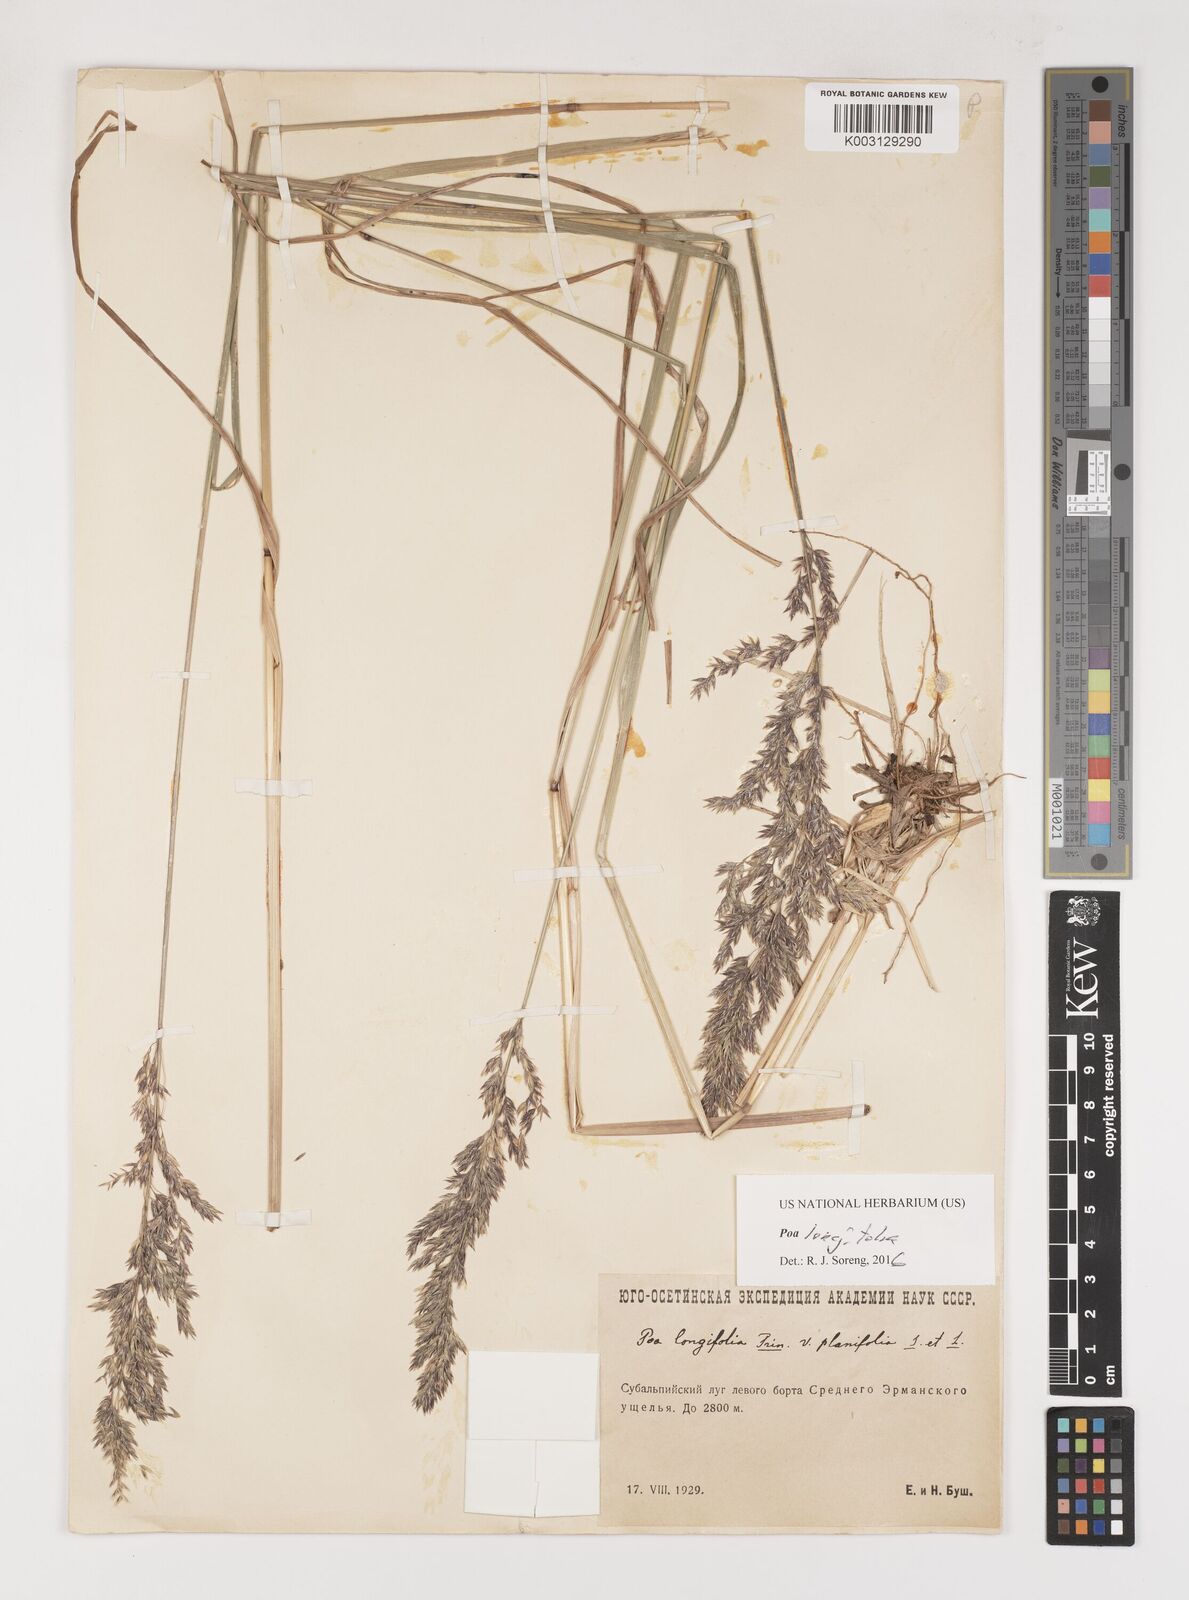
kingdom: Plantae
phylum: Tracheophyta
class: Liliopsida
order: Poales
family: Poaceae
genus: Poa
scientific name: Poa longifolia
